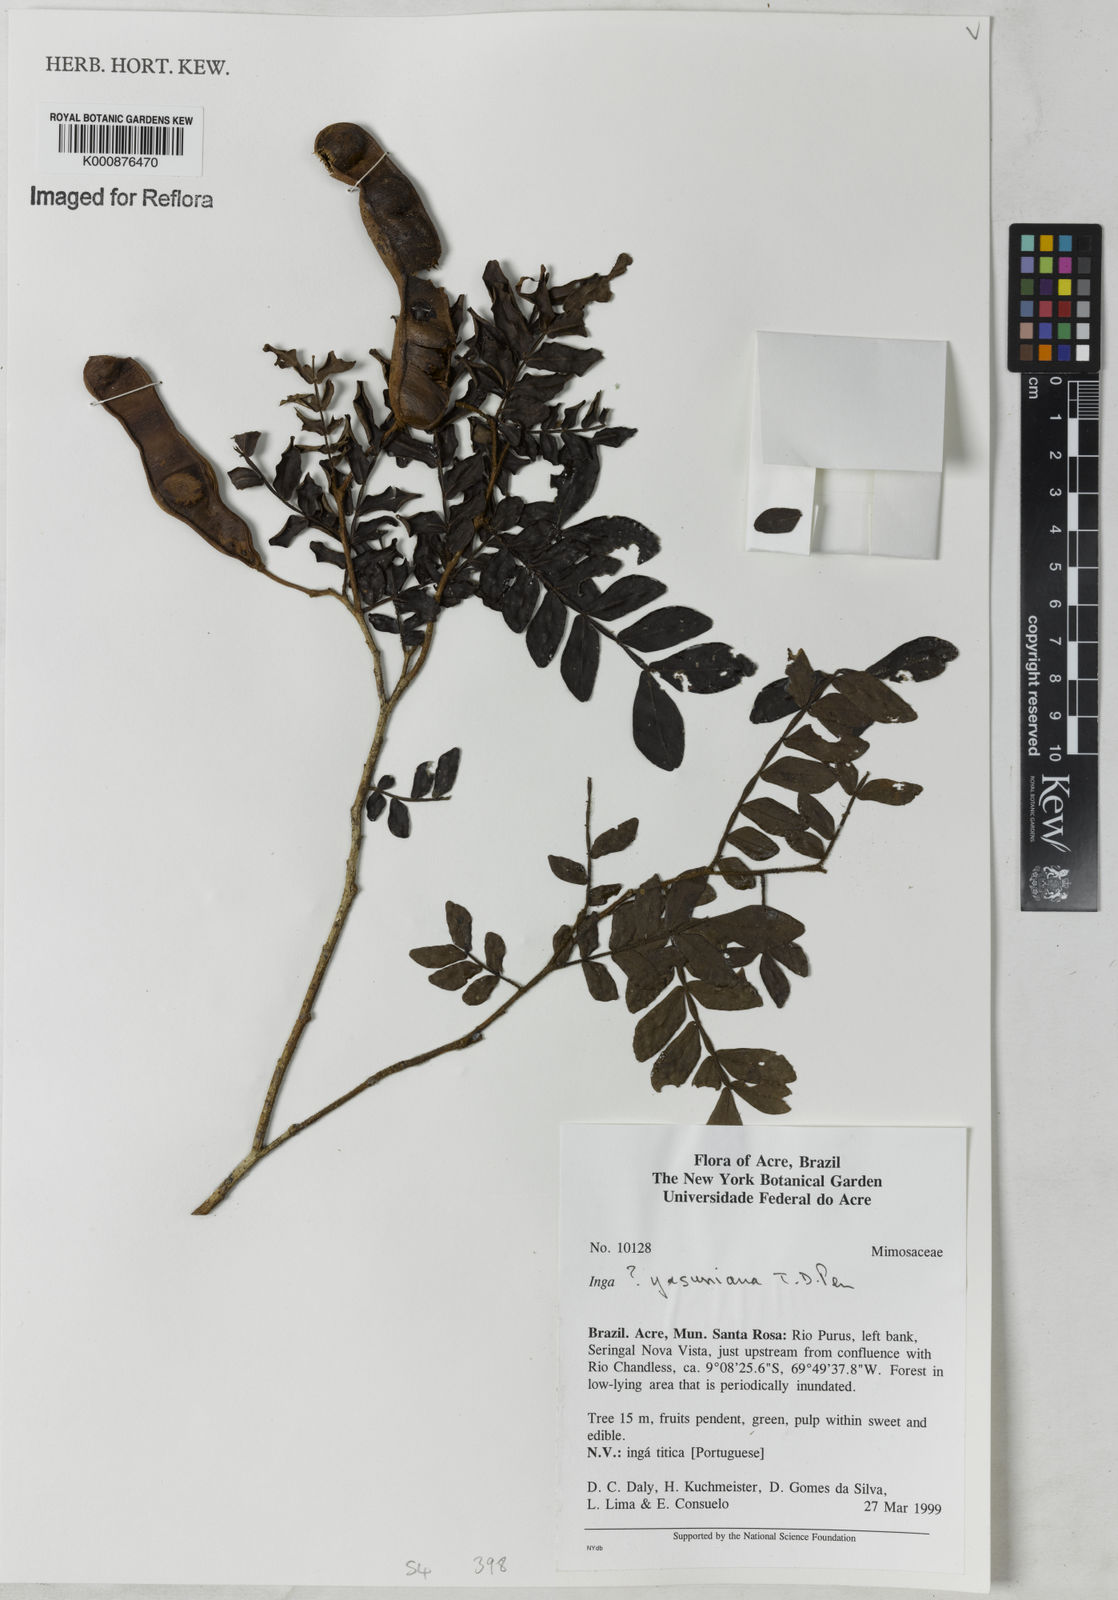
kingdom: Plantae
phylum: Tracheophyta
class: Magnoliopsida
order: Fabales
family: Fabaceae
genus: Inga
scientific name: Inga yasuniana
